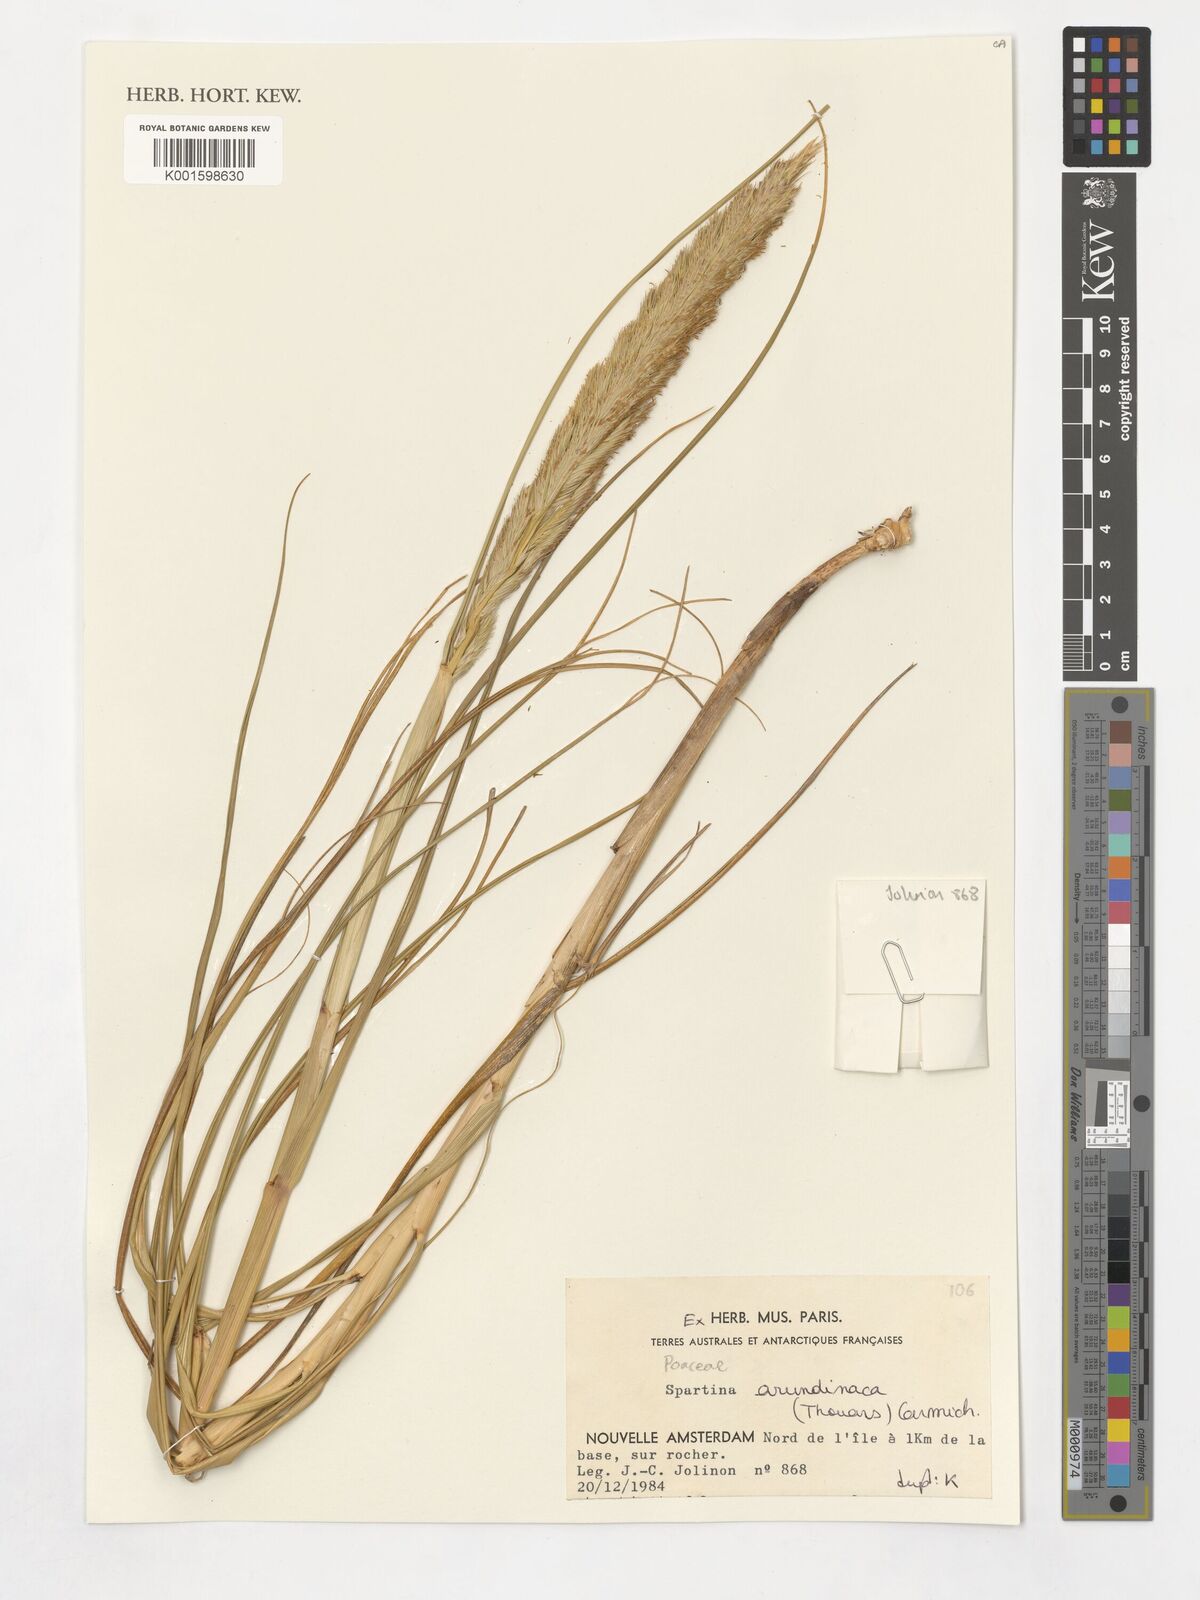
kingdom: Plantae
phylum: Tracheophyta
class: Liliopsida
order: Poales
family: Poaceae
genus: Sporobolus
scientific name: Sporobolus mobberleyanus
